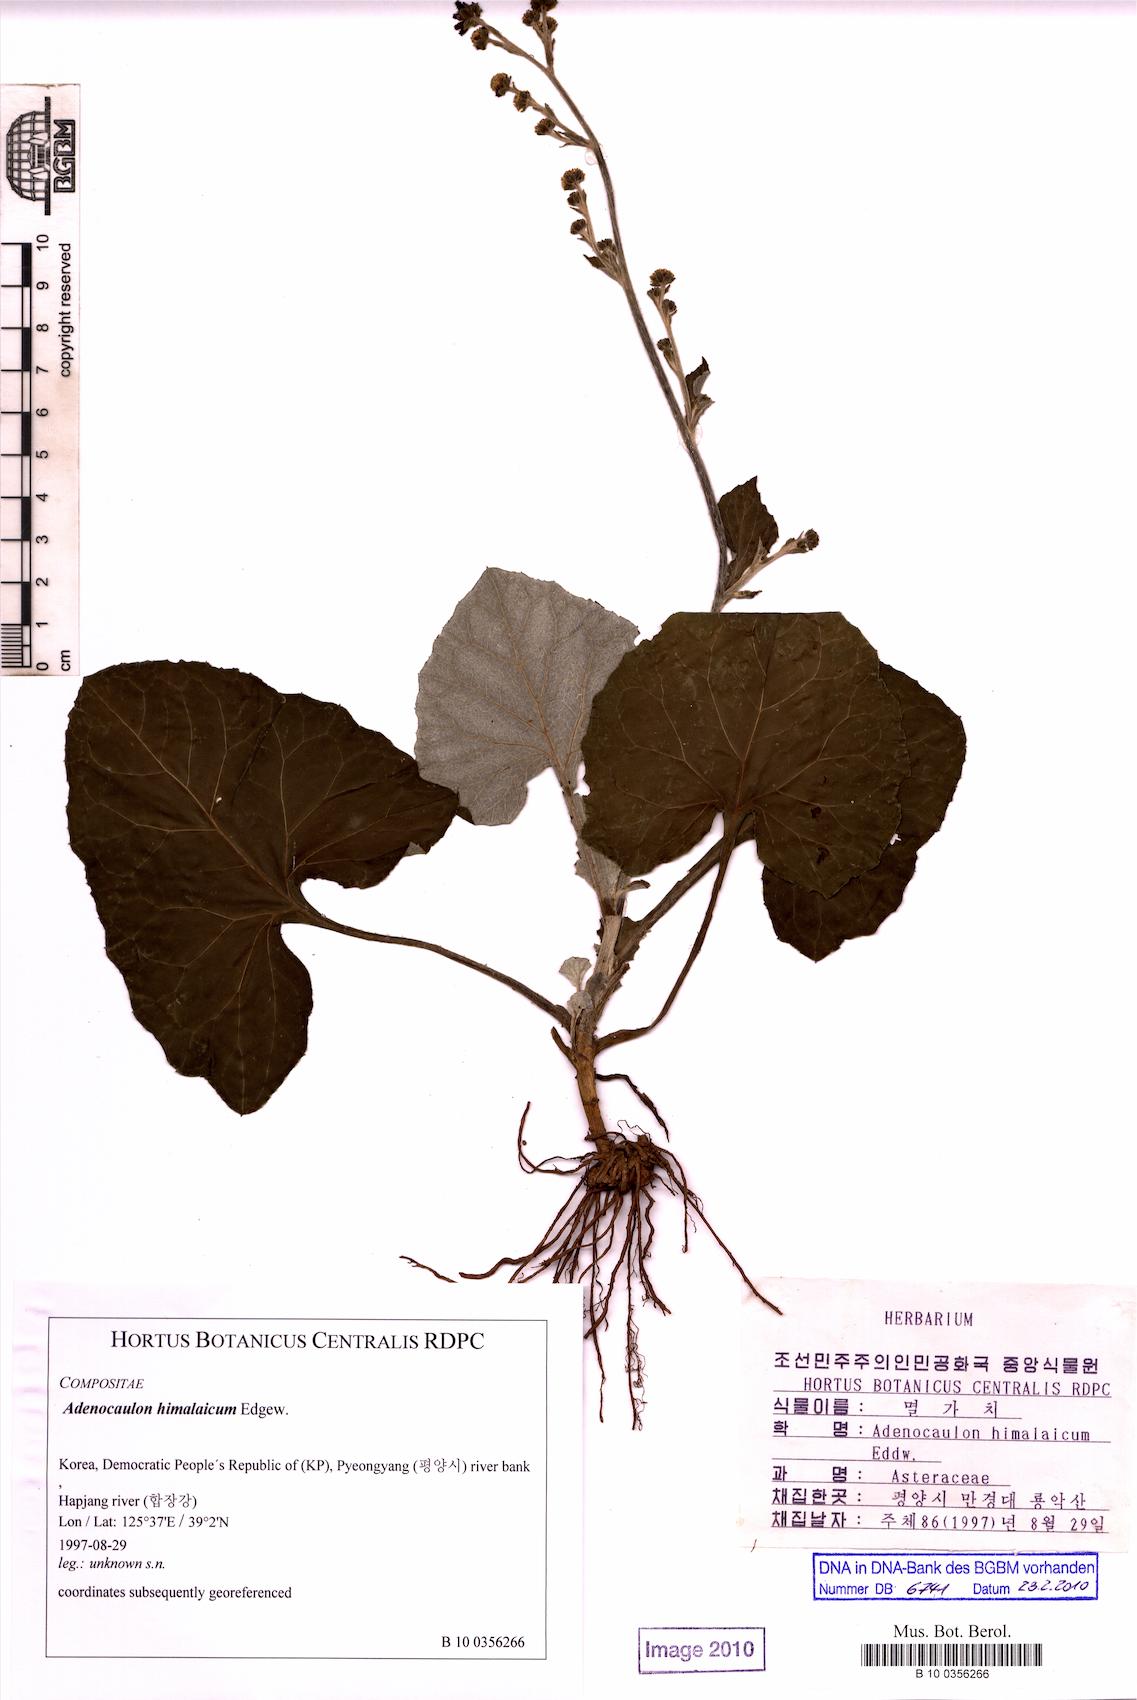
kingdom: Plantae
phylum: Tracheophyta
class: Magnoliopsida
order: Asterales
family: Asteraceae
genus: Adenocaulon
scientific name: Adenocaulon himalaicum
